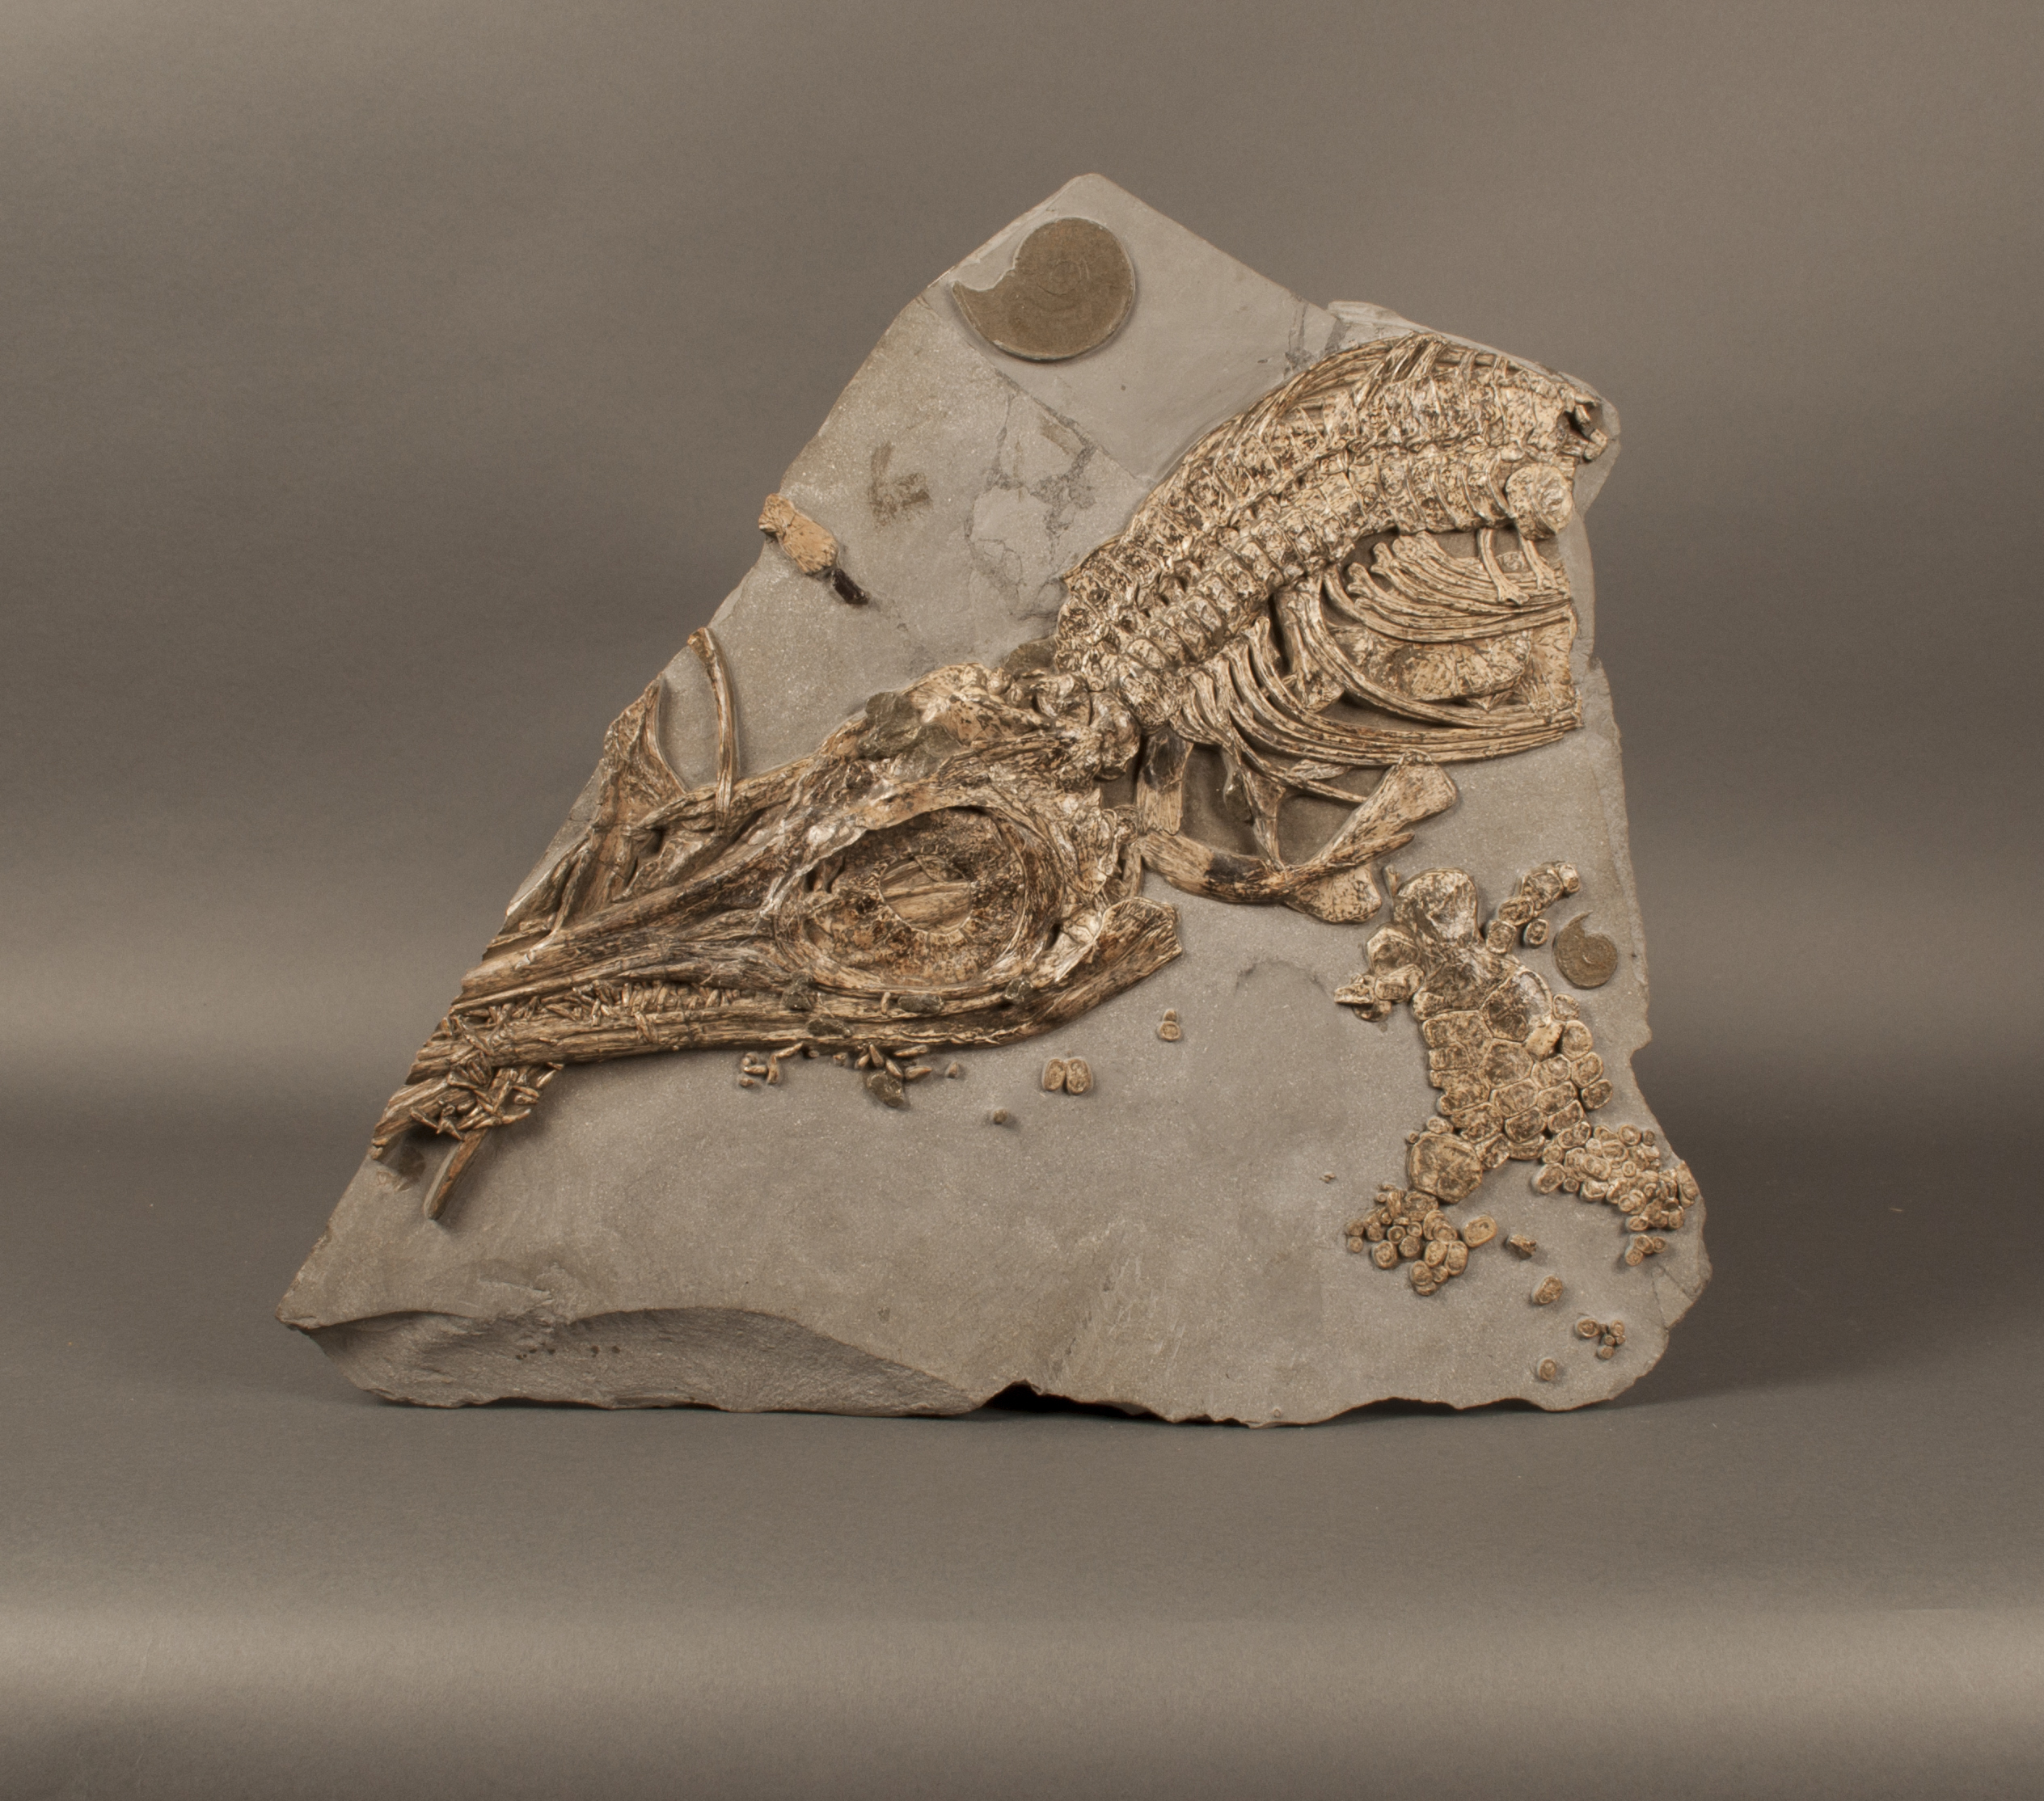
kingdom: Animalia
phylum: Chordata
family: Stenopterygiidae
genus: Hauffiopteryx
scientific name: Hauffiopteryx typicus
